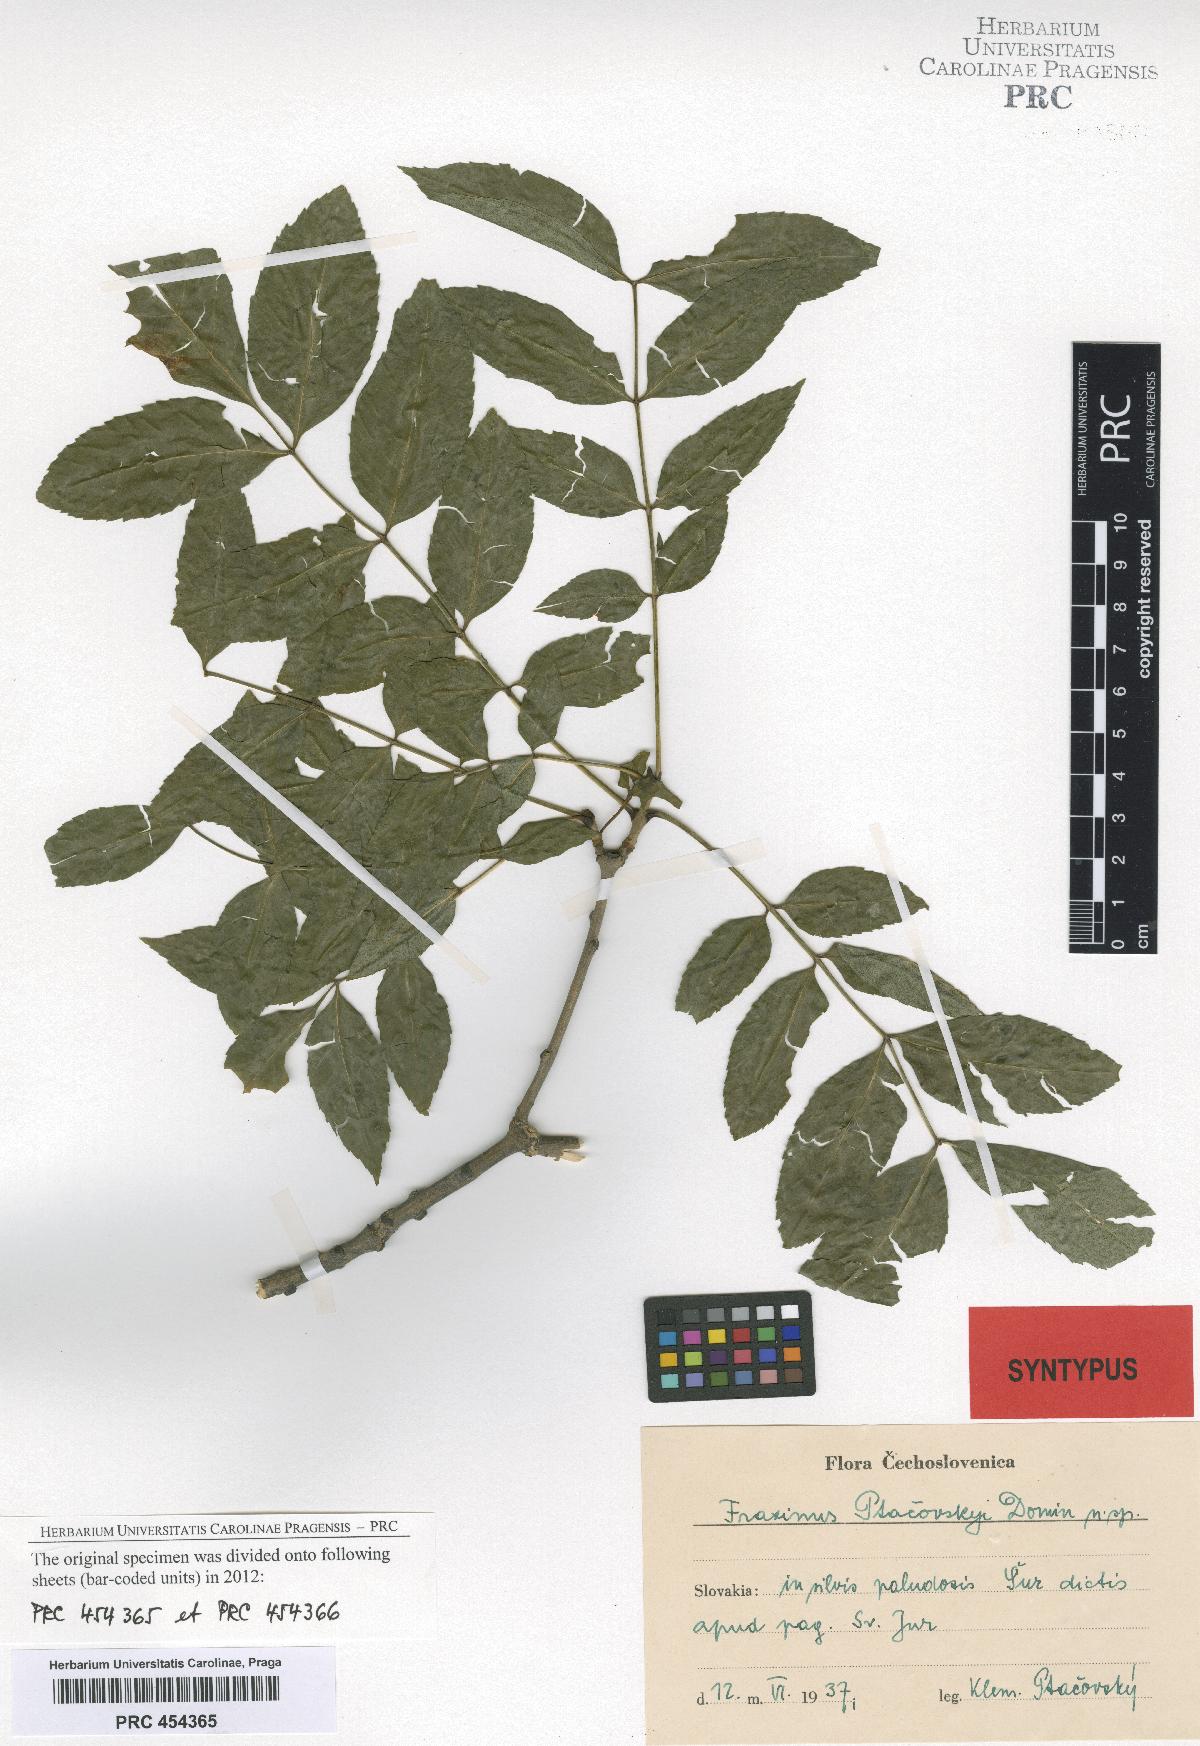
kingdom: Plantae
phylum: Tracheophyta
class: Magnoliopsida
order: Lamiales
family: Oleaceae
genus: Fraxinus
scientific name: Fraxinus angustifolia
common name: Narrow-leafed ash
